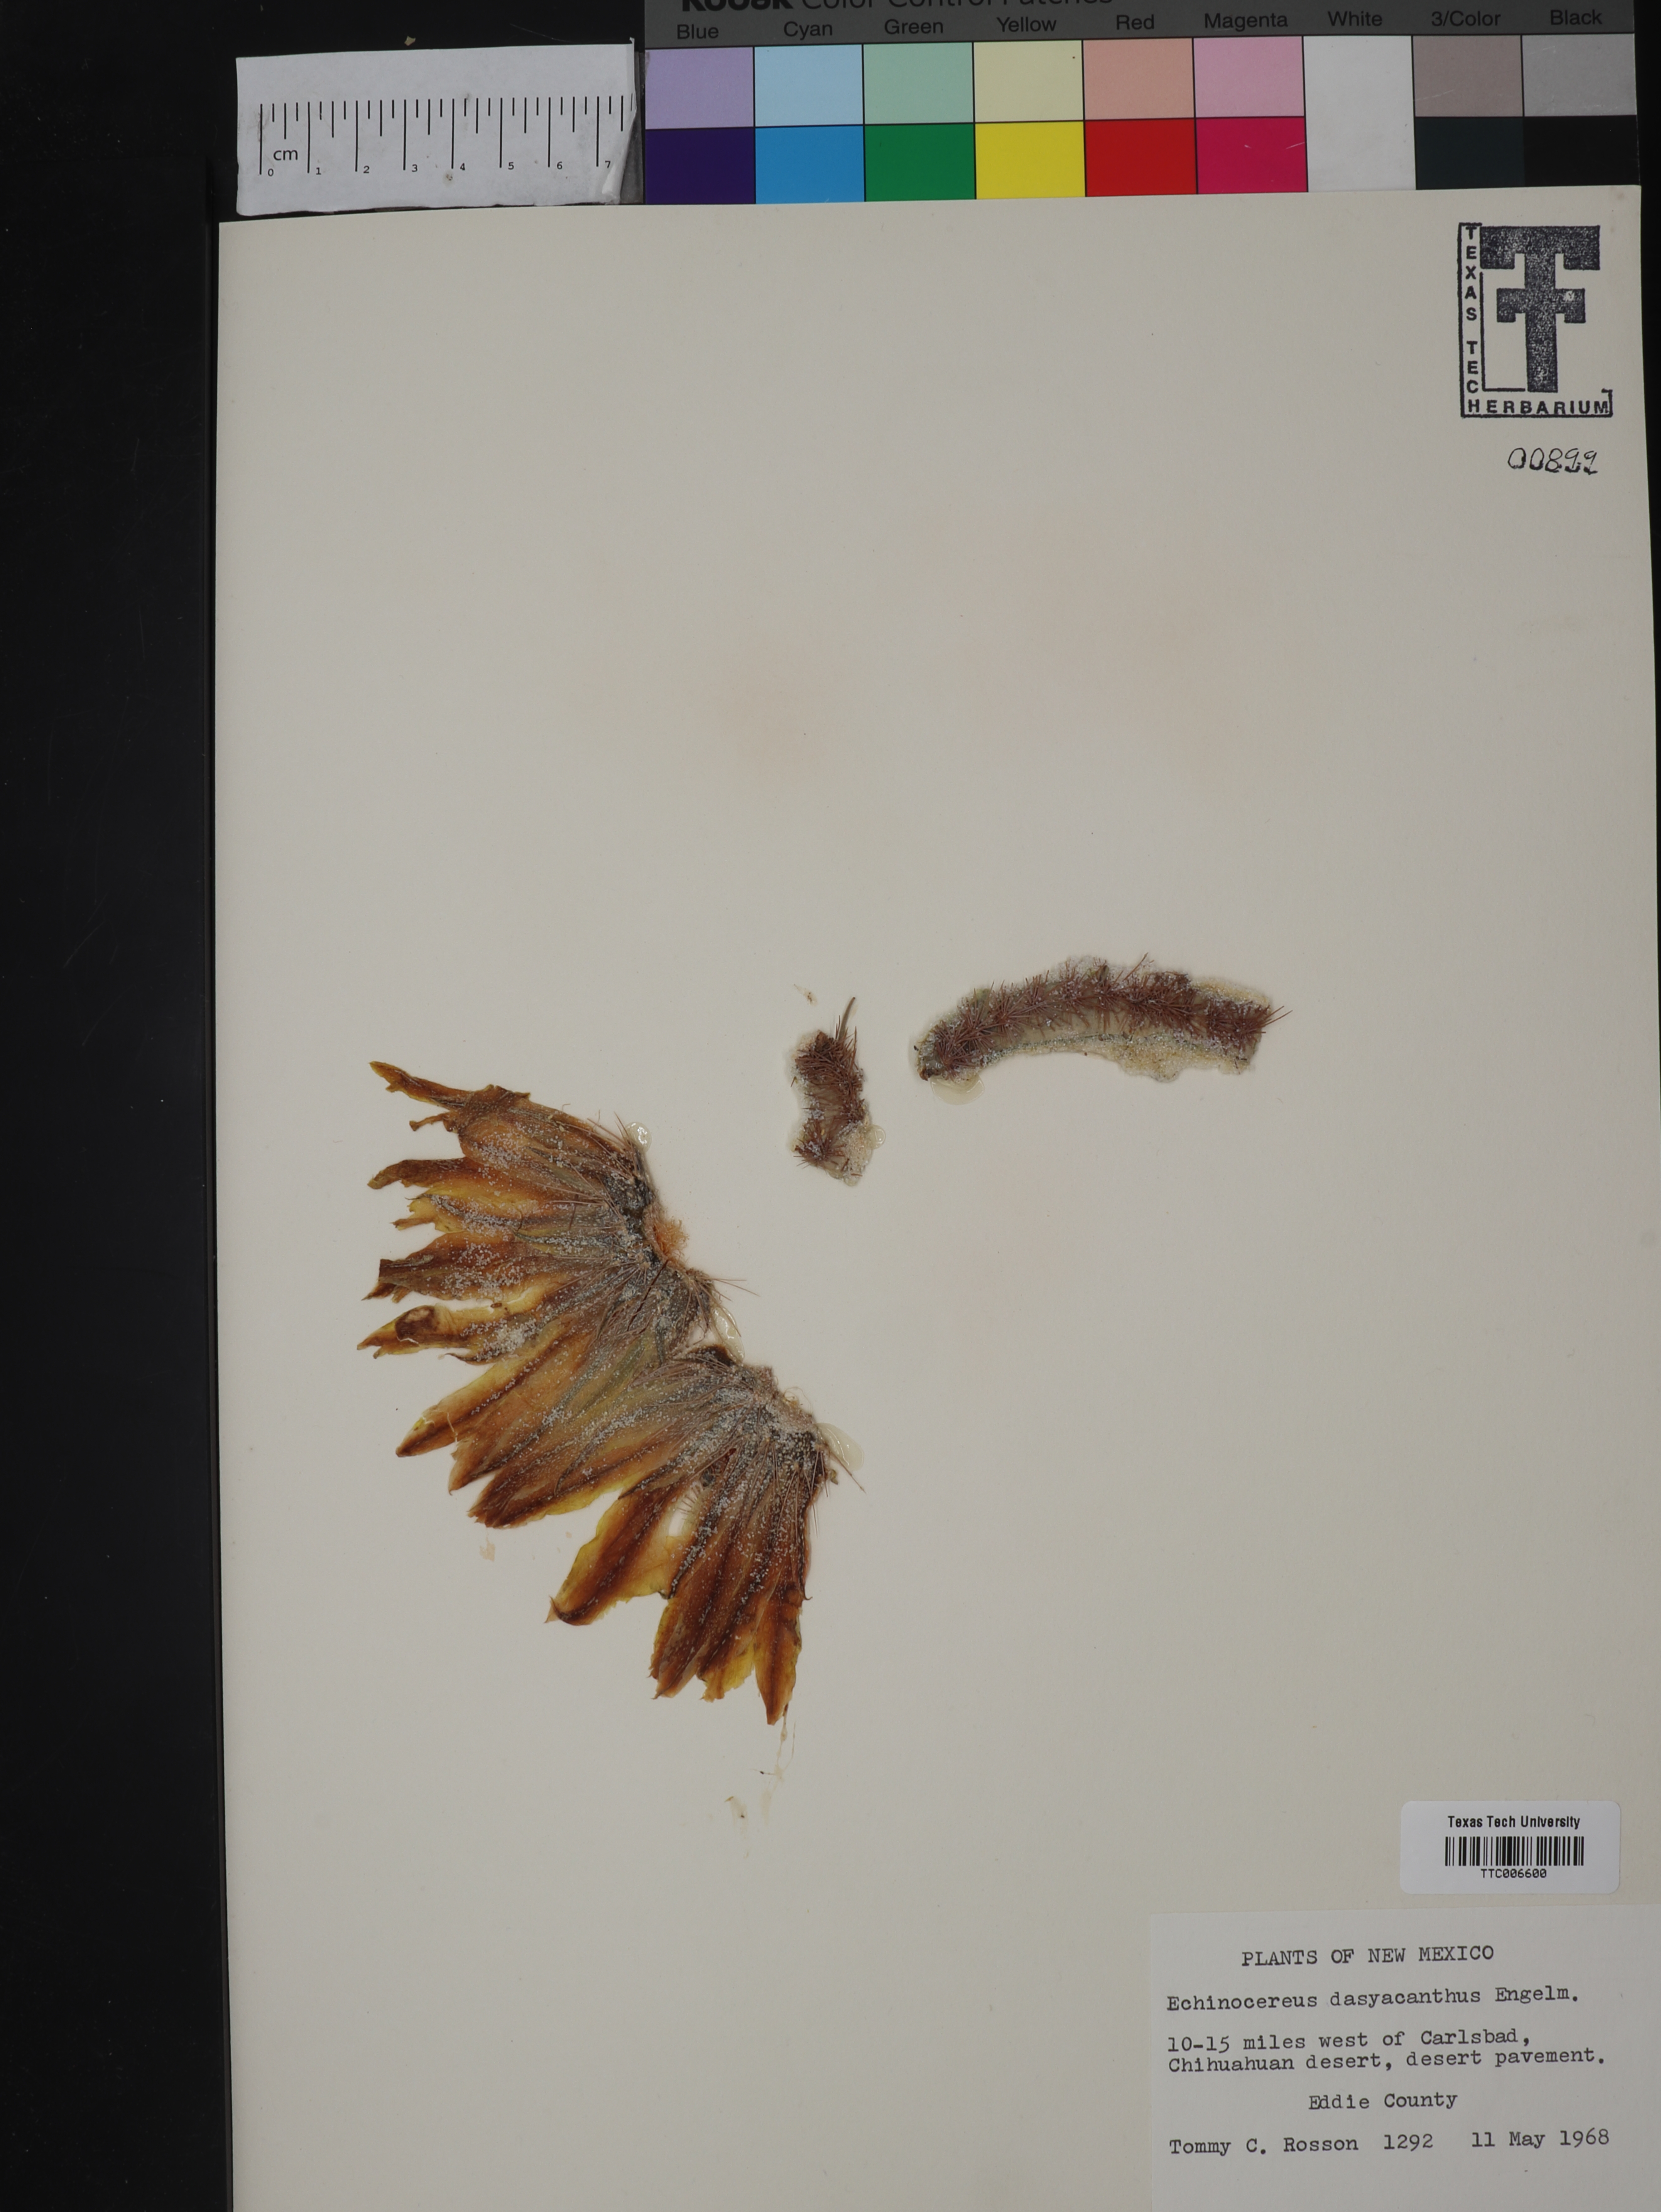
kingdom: Plantae
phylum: Tracheophyta
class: Magnoliopsida
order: Caryophyllales
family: Cactaceae
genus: Sclerocactus
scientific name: Sclerocactus intertextus
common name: White fish-hook cactus
